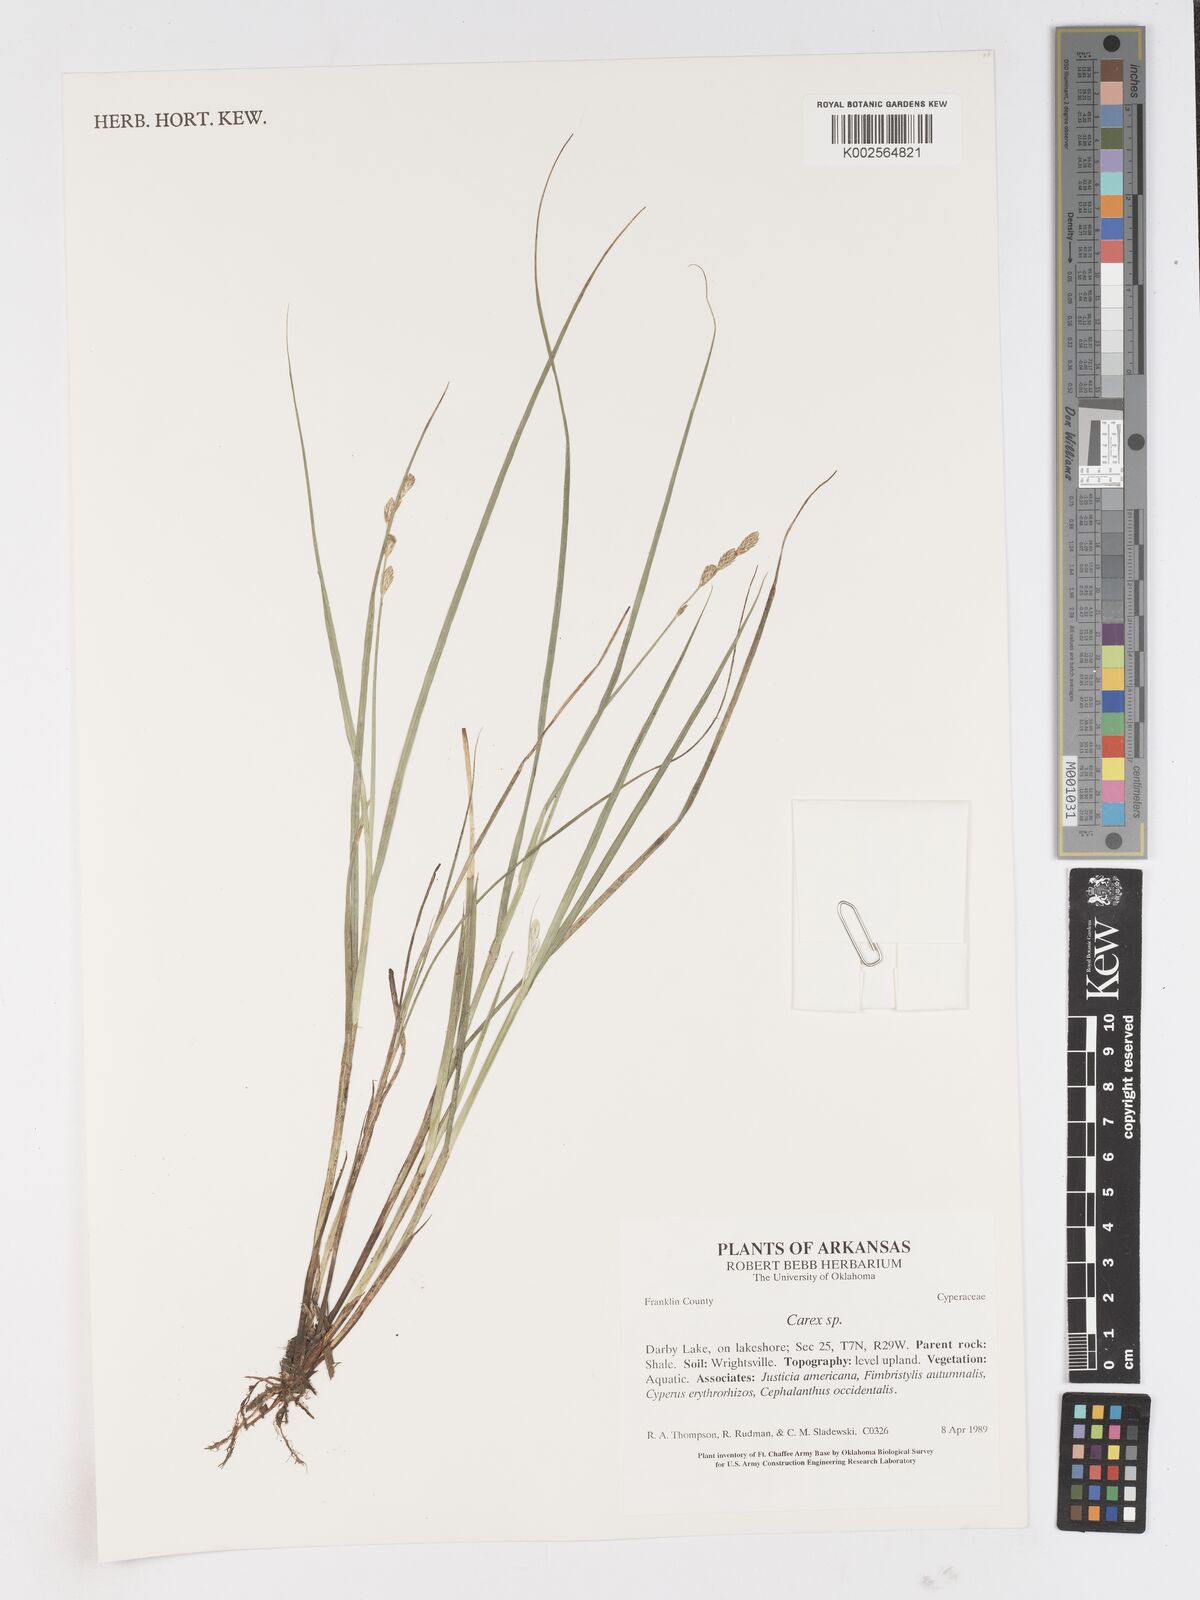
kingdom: Plantae
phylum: Tracheophyta
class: Liliopsida
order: Poales
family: Cyperaceae
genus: Carex
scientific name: Carex
